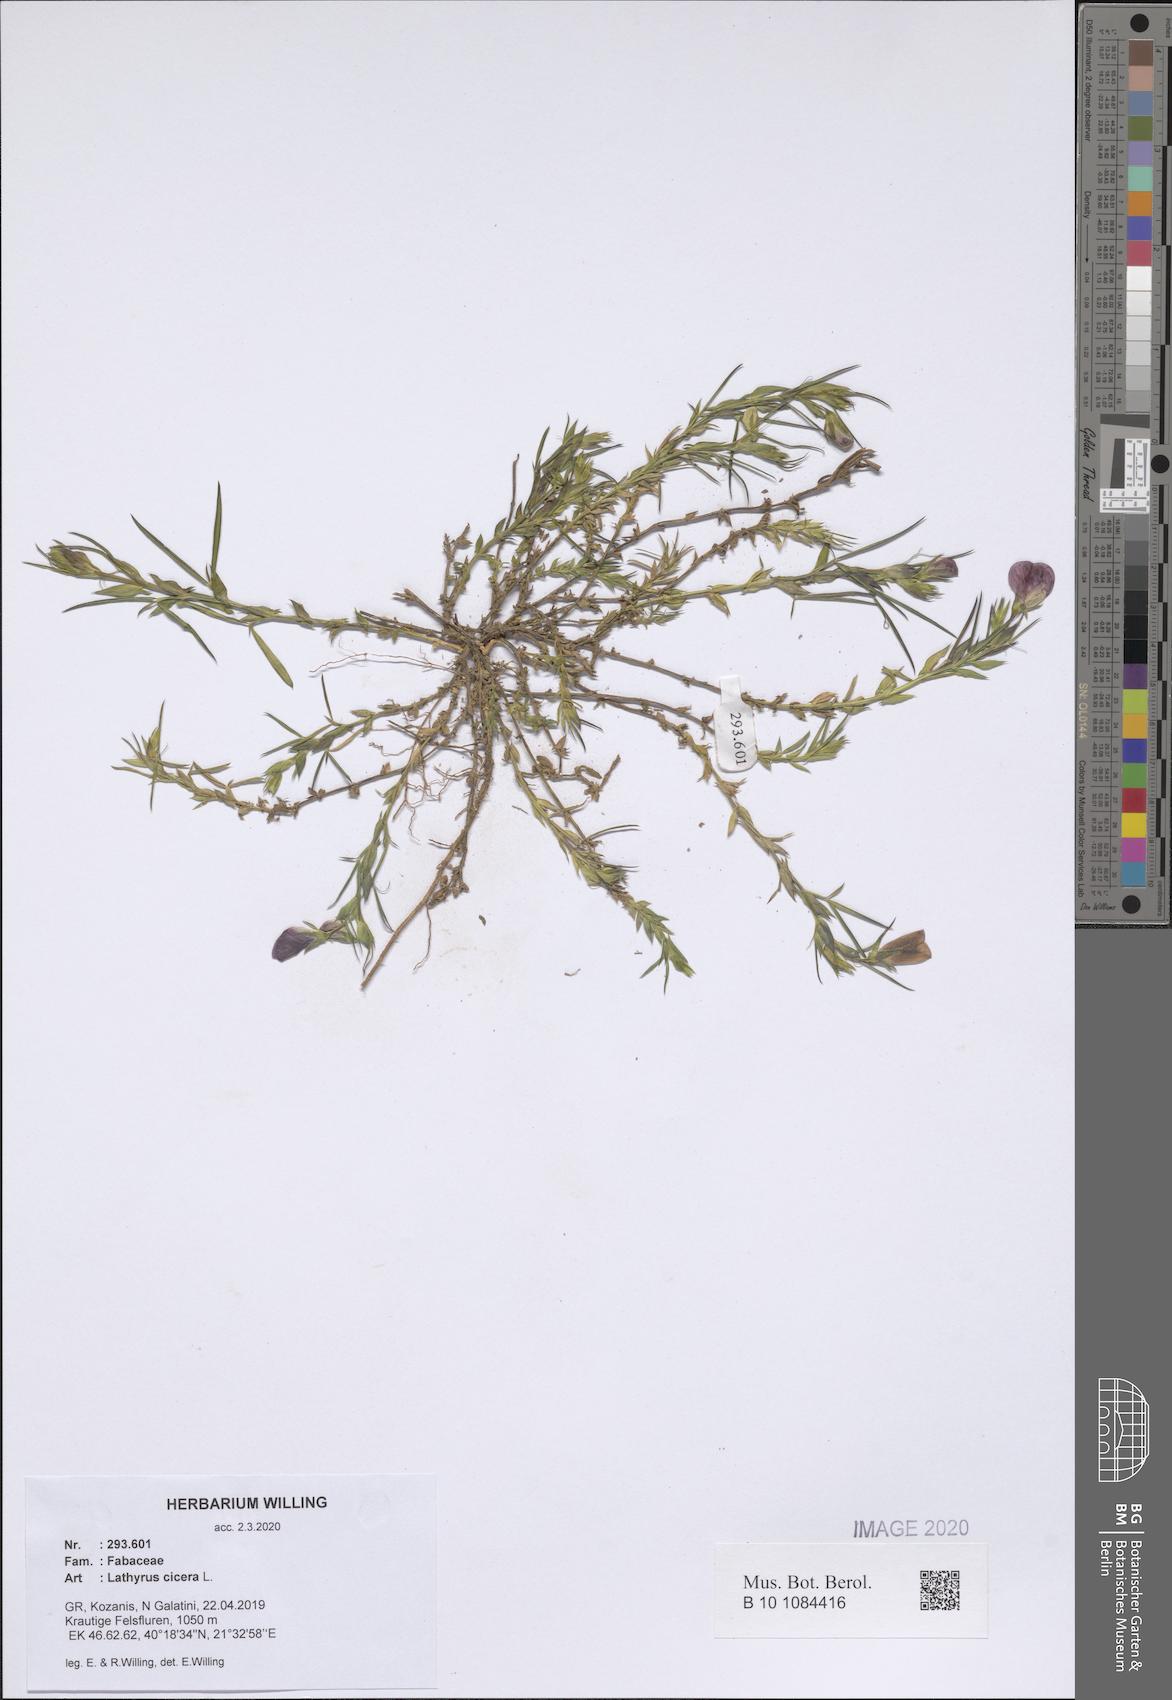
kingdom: Plantae
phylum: Tracheophyta
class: Magnoliopsida
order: Fabales
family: Fabaceae
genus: Lathyrus
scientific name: Lathyrus cicera
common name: Red vetchling
